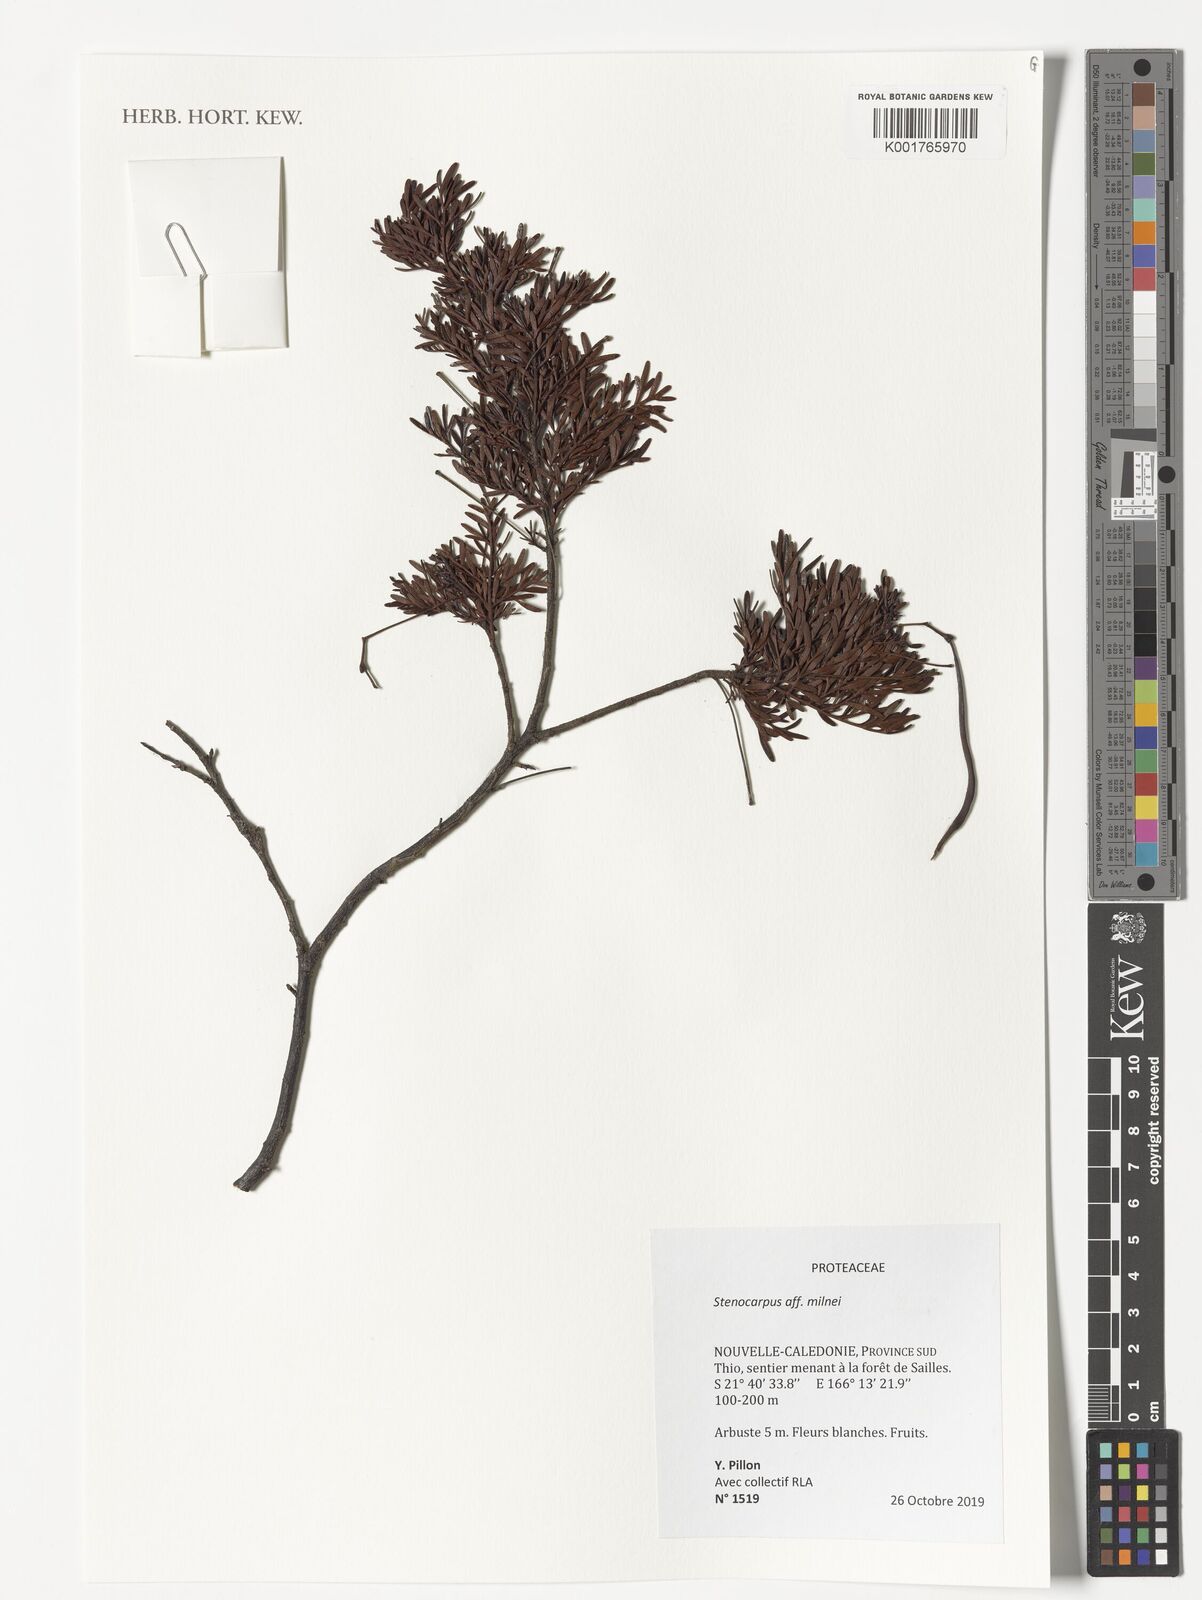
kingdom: Plantae
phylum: Tracheophyta
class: Magnoliopsida
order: Proteales
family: Proteaceae
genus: Stenocarpus
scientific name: Stenocarpus milnei
